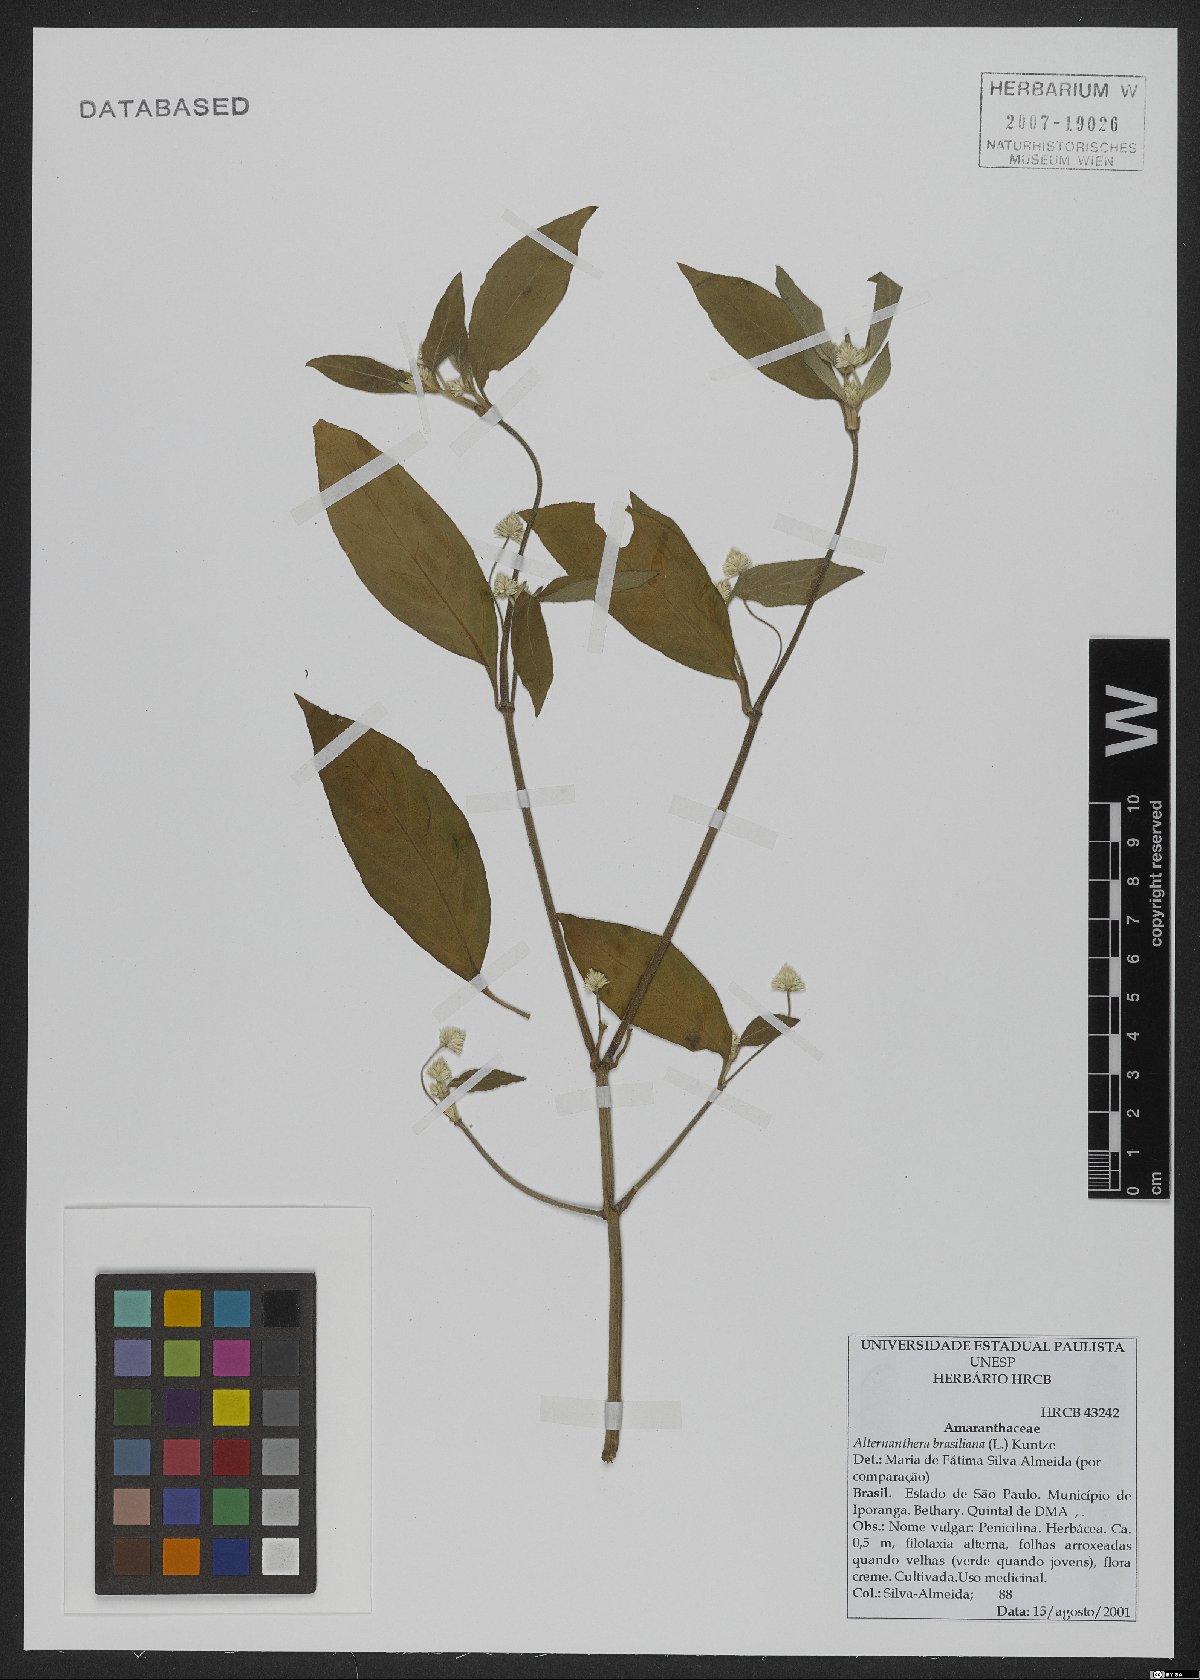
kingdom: Plantae
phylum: Tracheophyta
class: Magnoliopsida
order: Caryophyllales
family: Amaranthaceae
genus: Alternanthera
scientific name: Alternanthera brasiliana
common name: Brazilian joyweed
